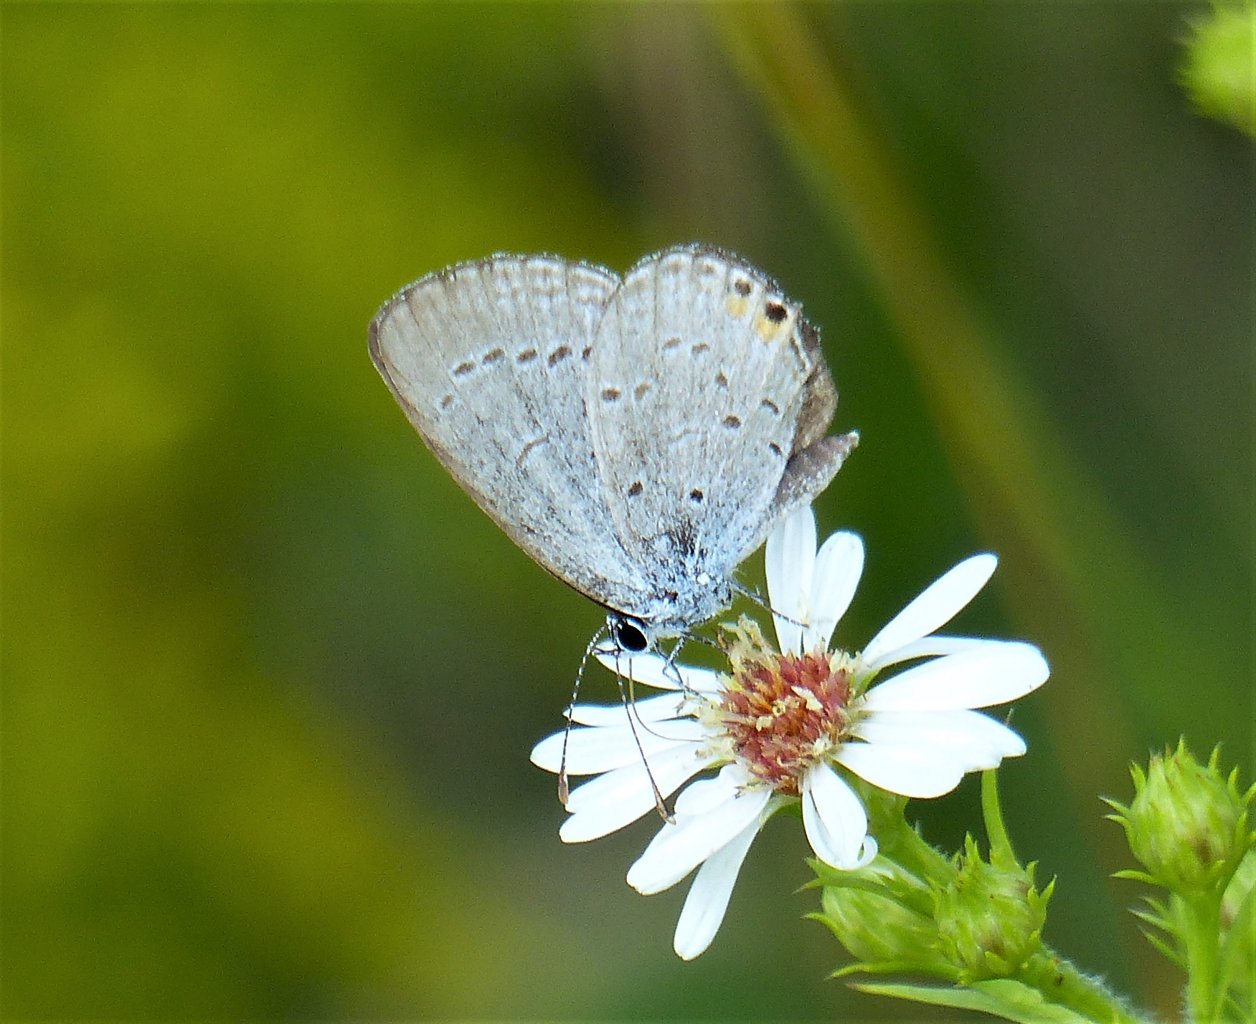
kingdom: Animalia
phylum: Arthropoda
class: Insecta
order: Lepidoptera
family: Lycaenidae
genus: Elkalyce
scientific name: Elkalyce comyntas
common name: Eastern Tailed-Blue
